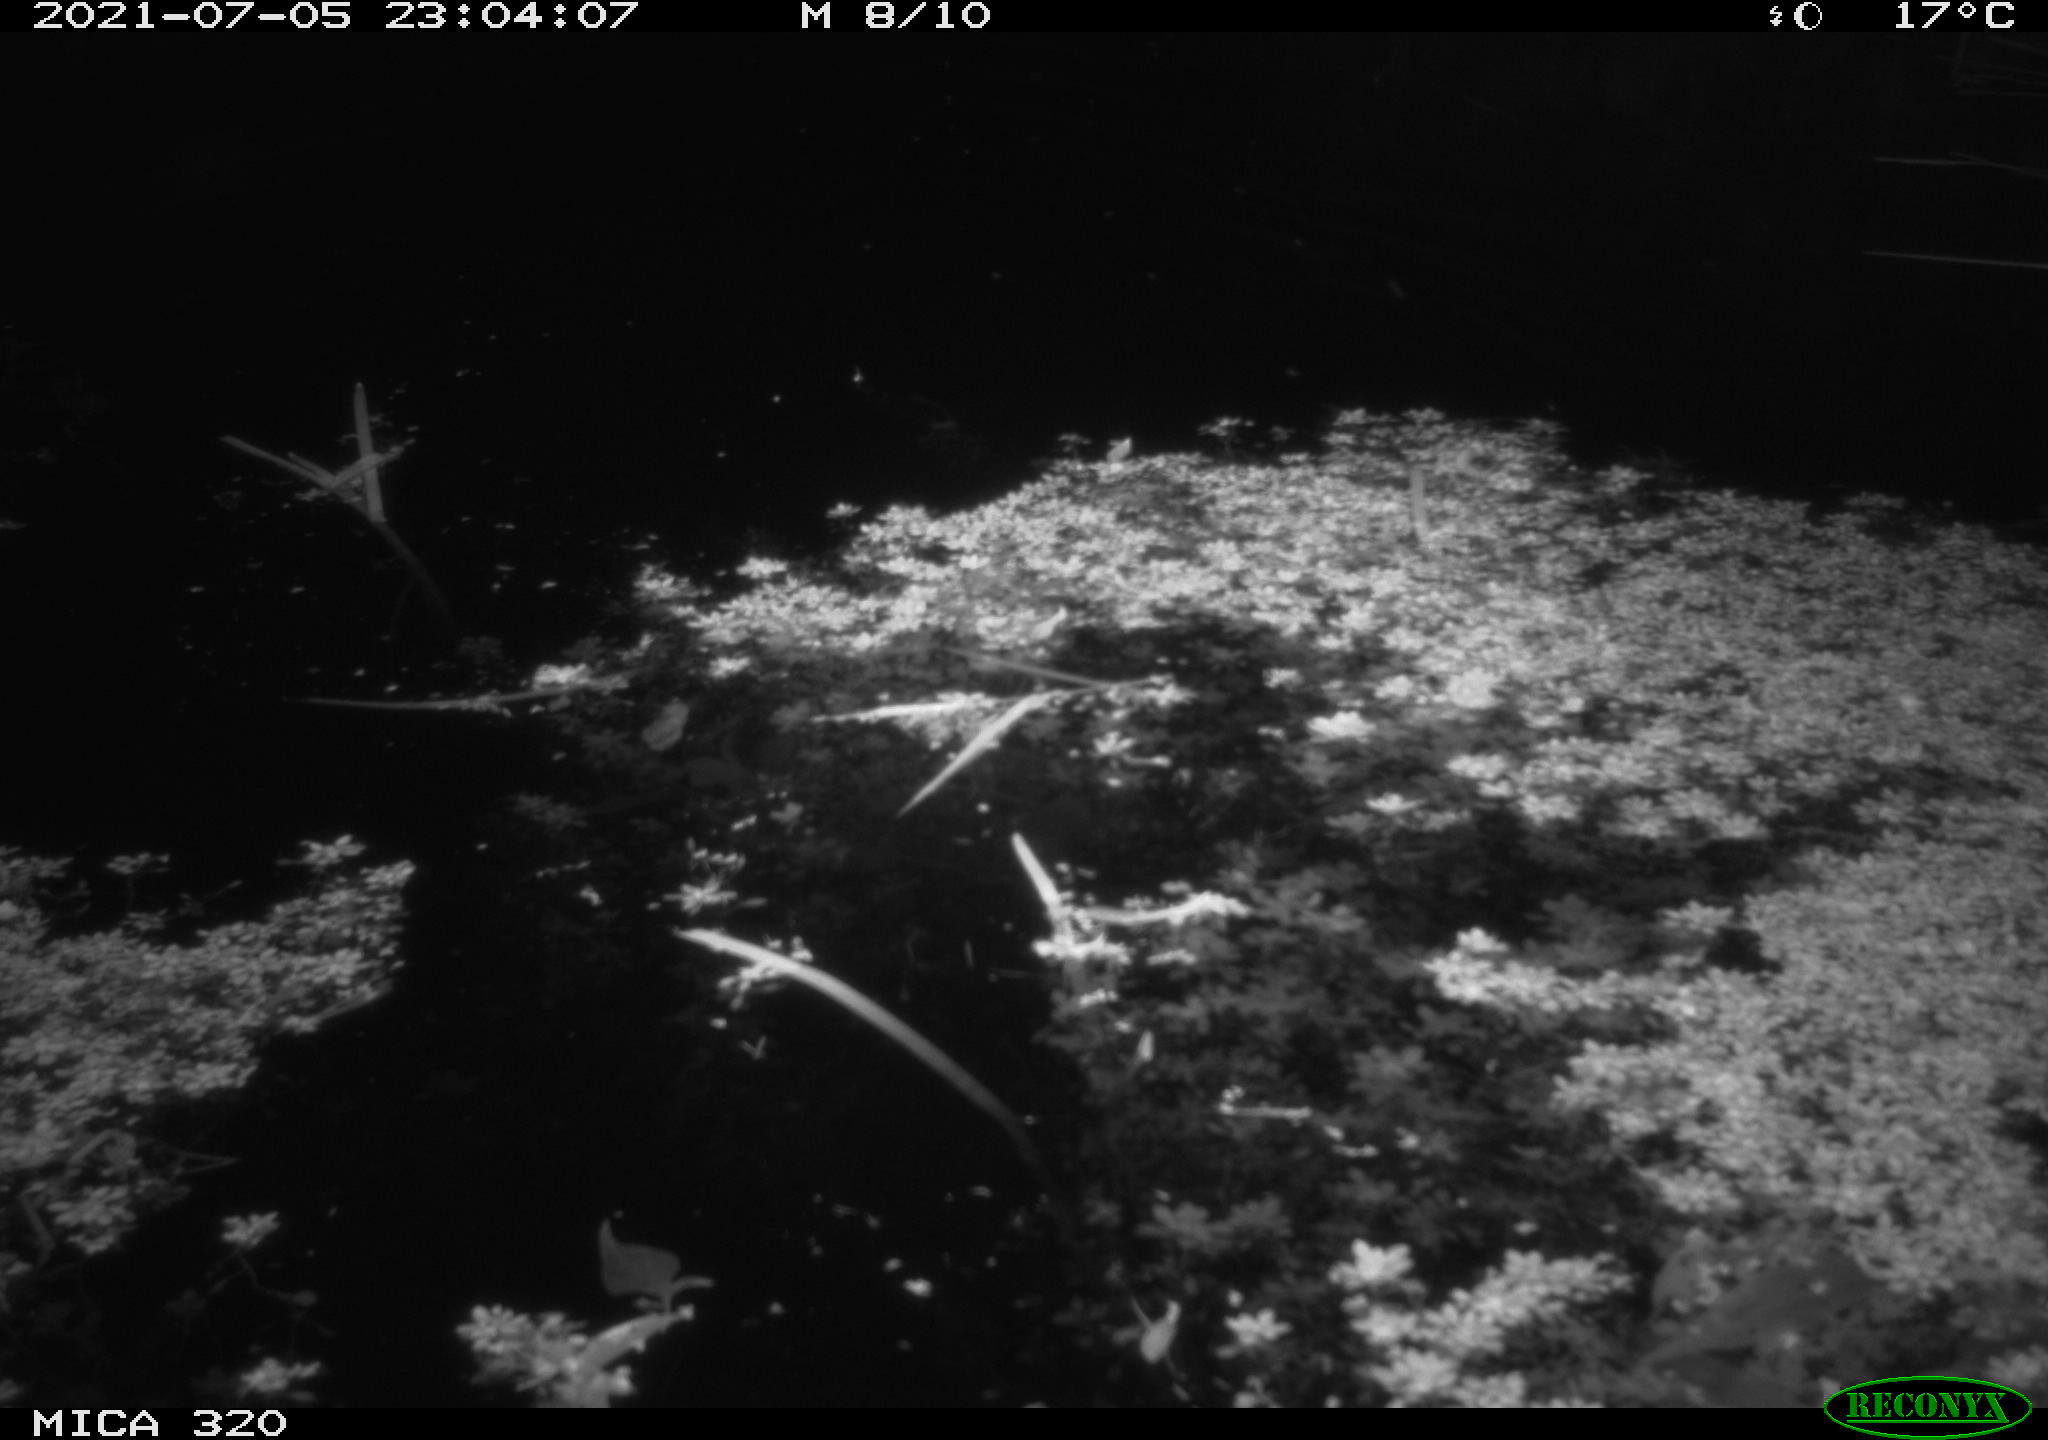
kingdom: Animalia
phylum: Chordata
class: Mammalia
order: Rodentia
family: Muridae
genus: Rattus
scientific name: Rattus norvegicus
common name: Brown rat
